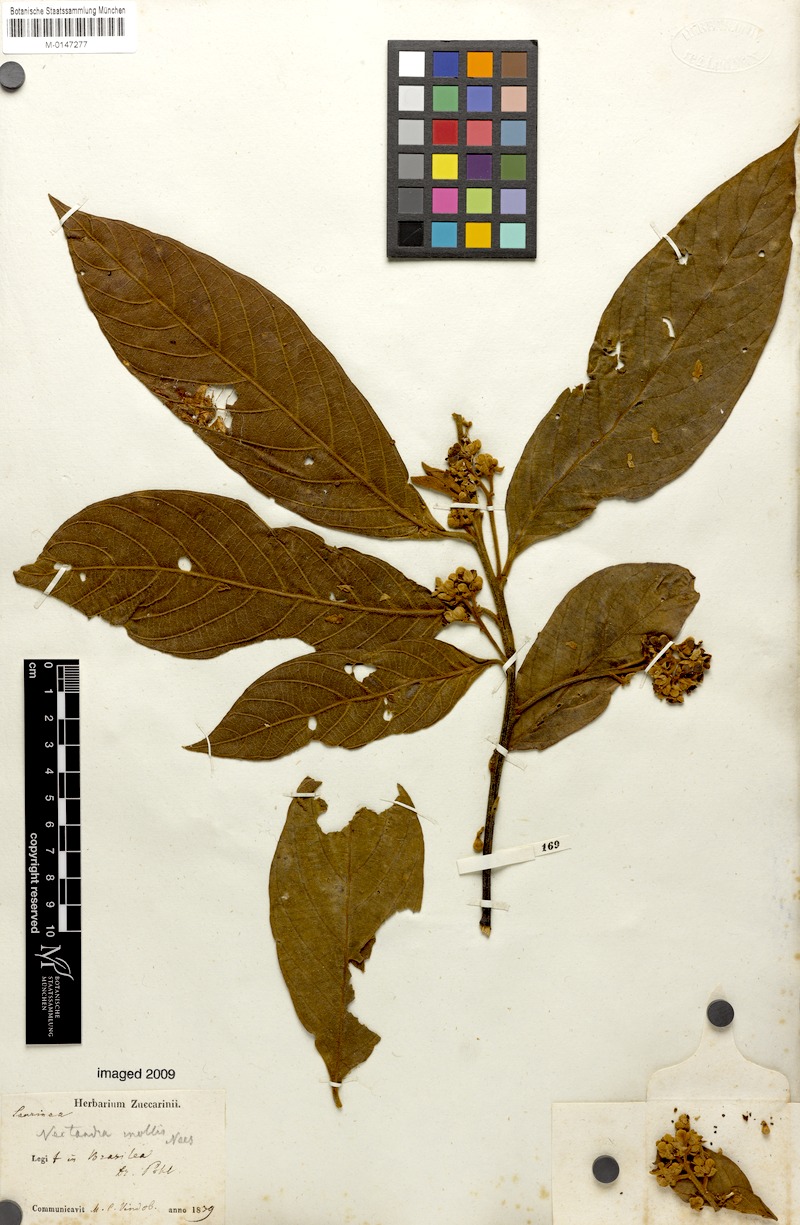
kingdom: Plantae
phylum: Tracheophyta
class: Magnoliopsida
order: Laurales
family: Lauraceae
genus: Nectandra
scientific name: Nectandra villosa
